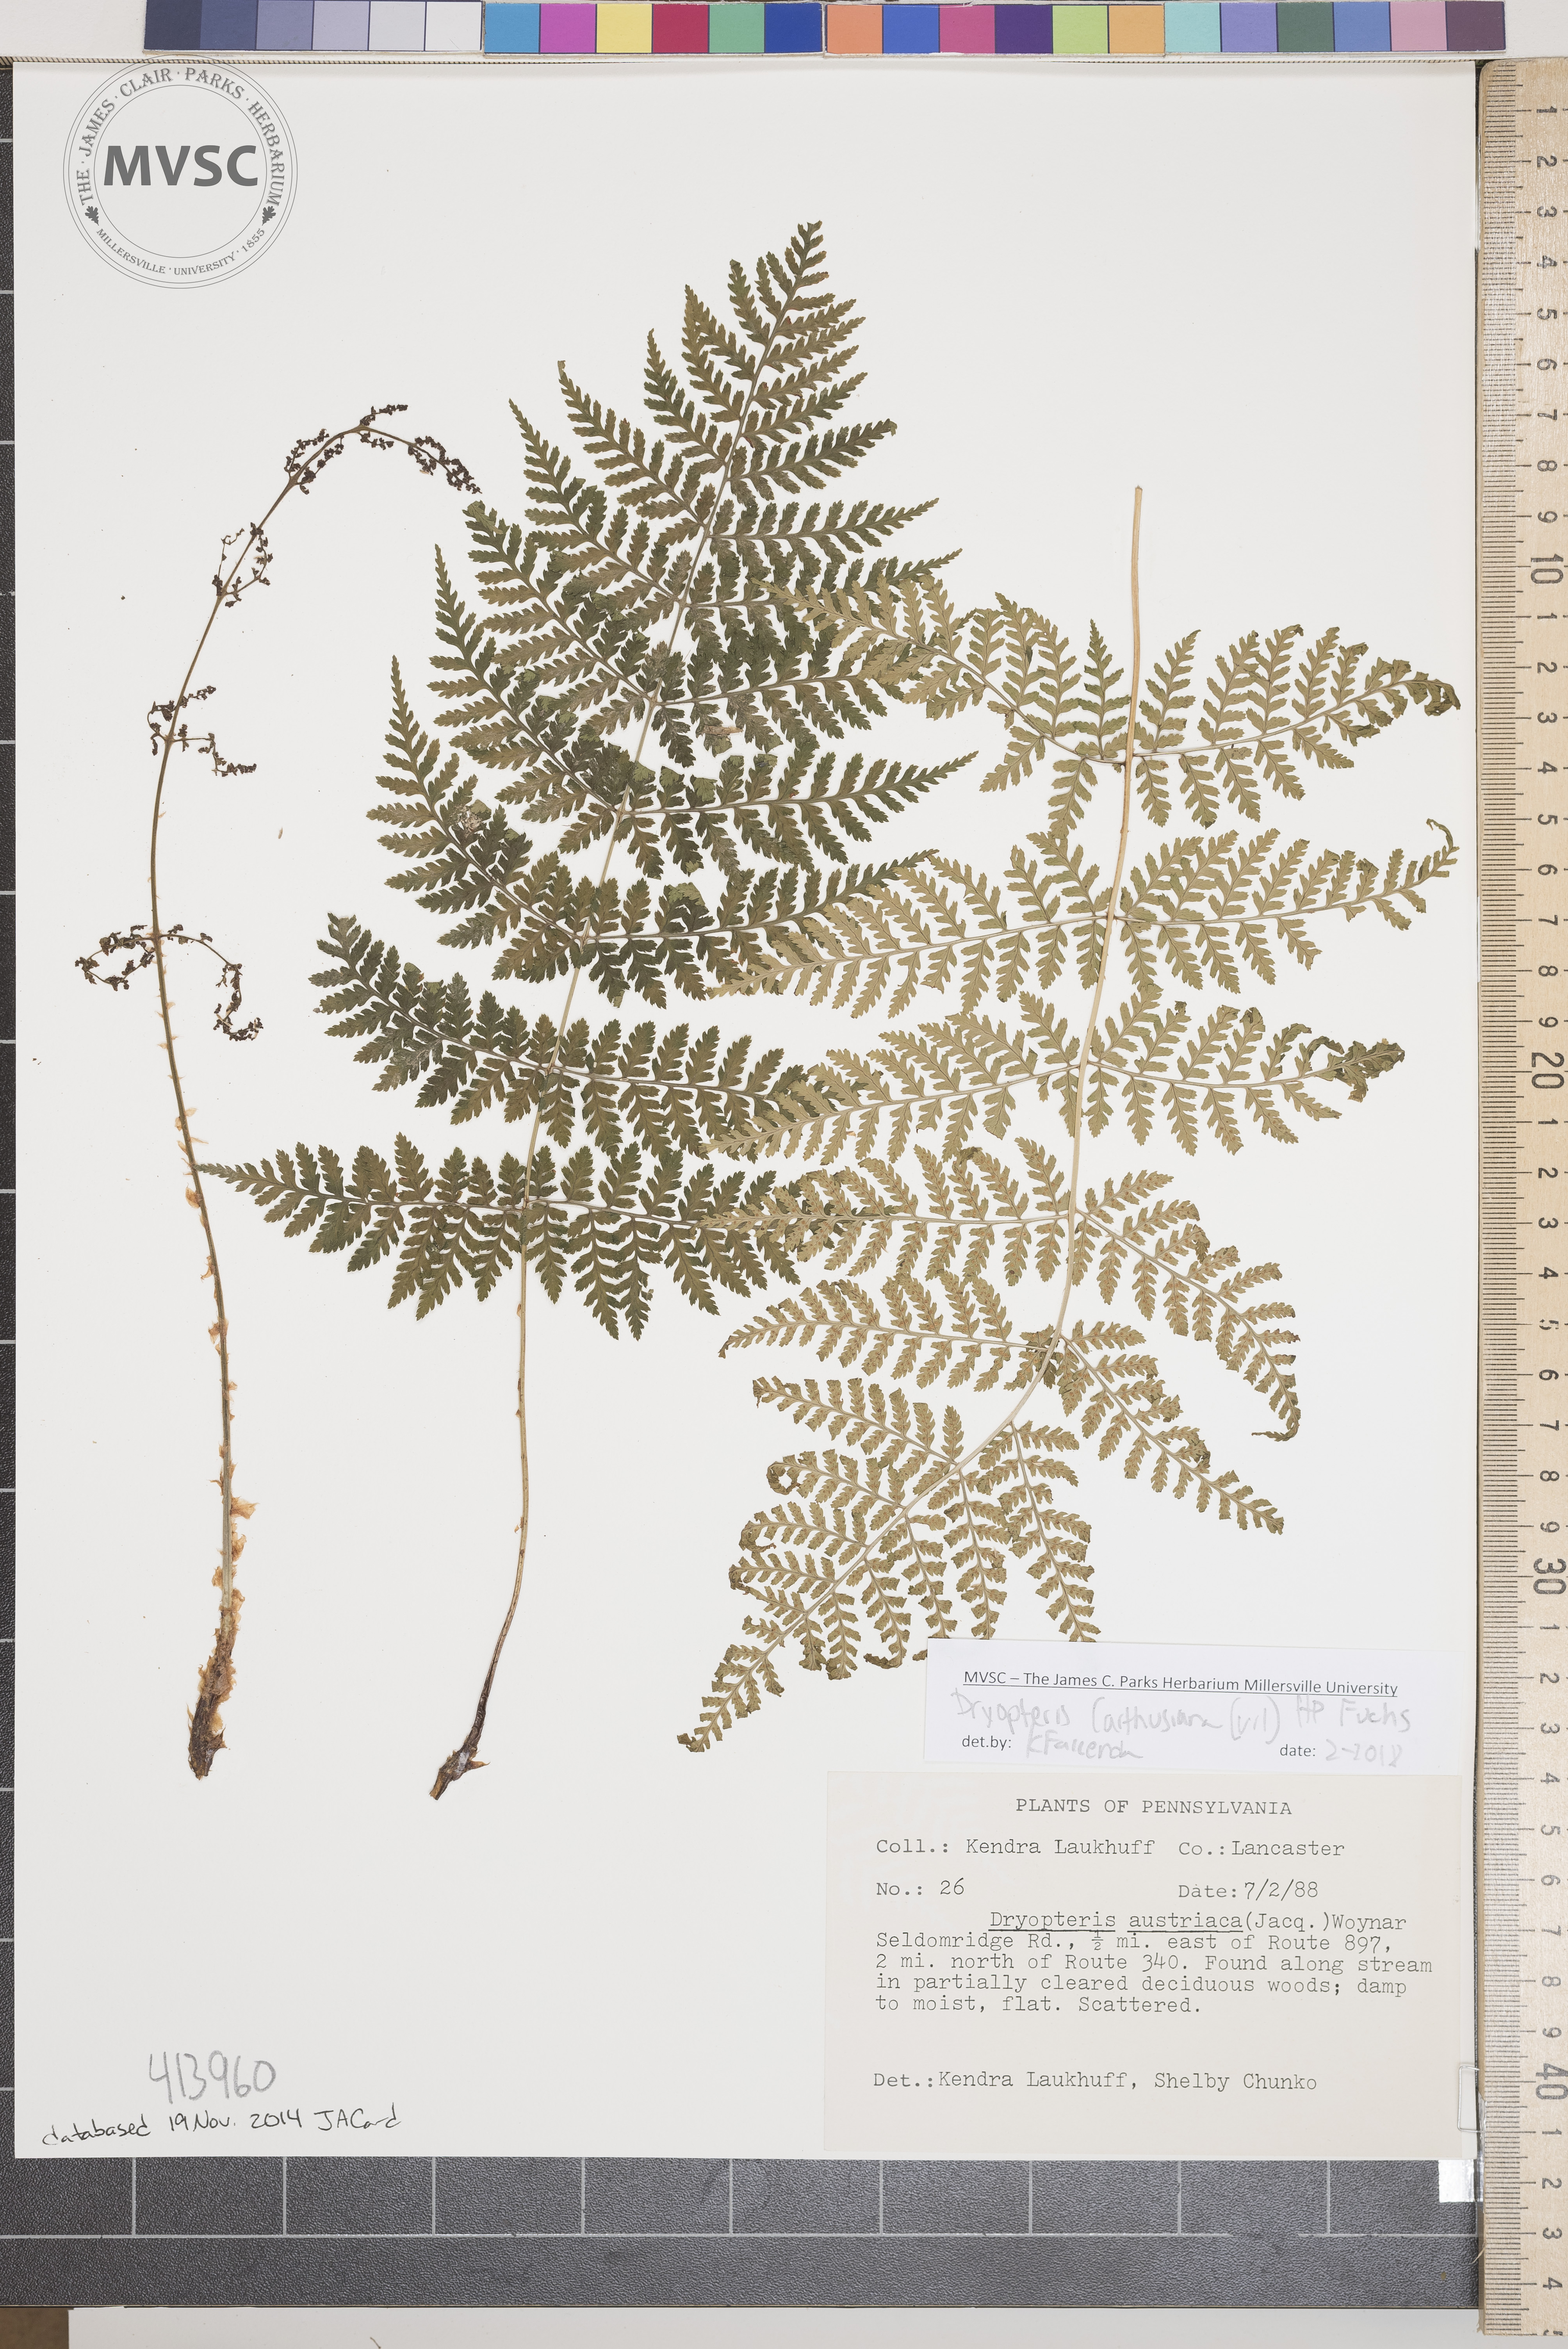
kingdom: Plantae
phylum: Tracheophyta
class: Polypodiopsida
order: Polypodiales
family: Dryopteridaceae
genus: Dryopteris
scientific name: Dryopteris carthusiana
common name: Narrow buckler-fern
